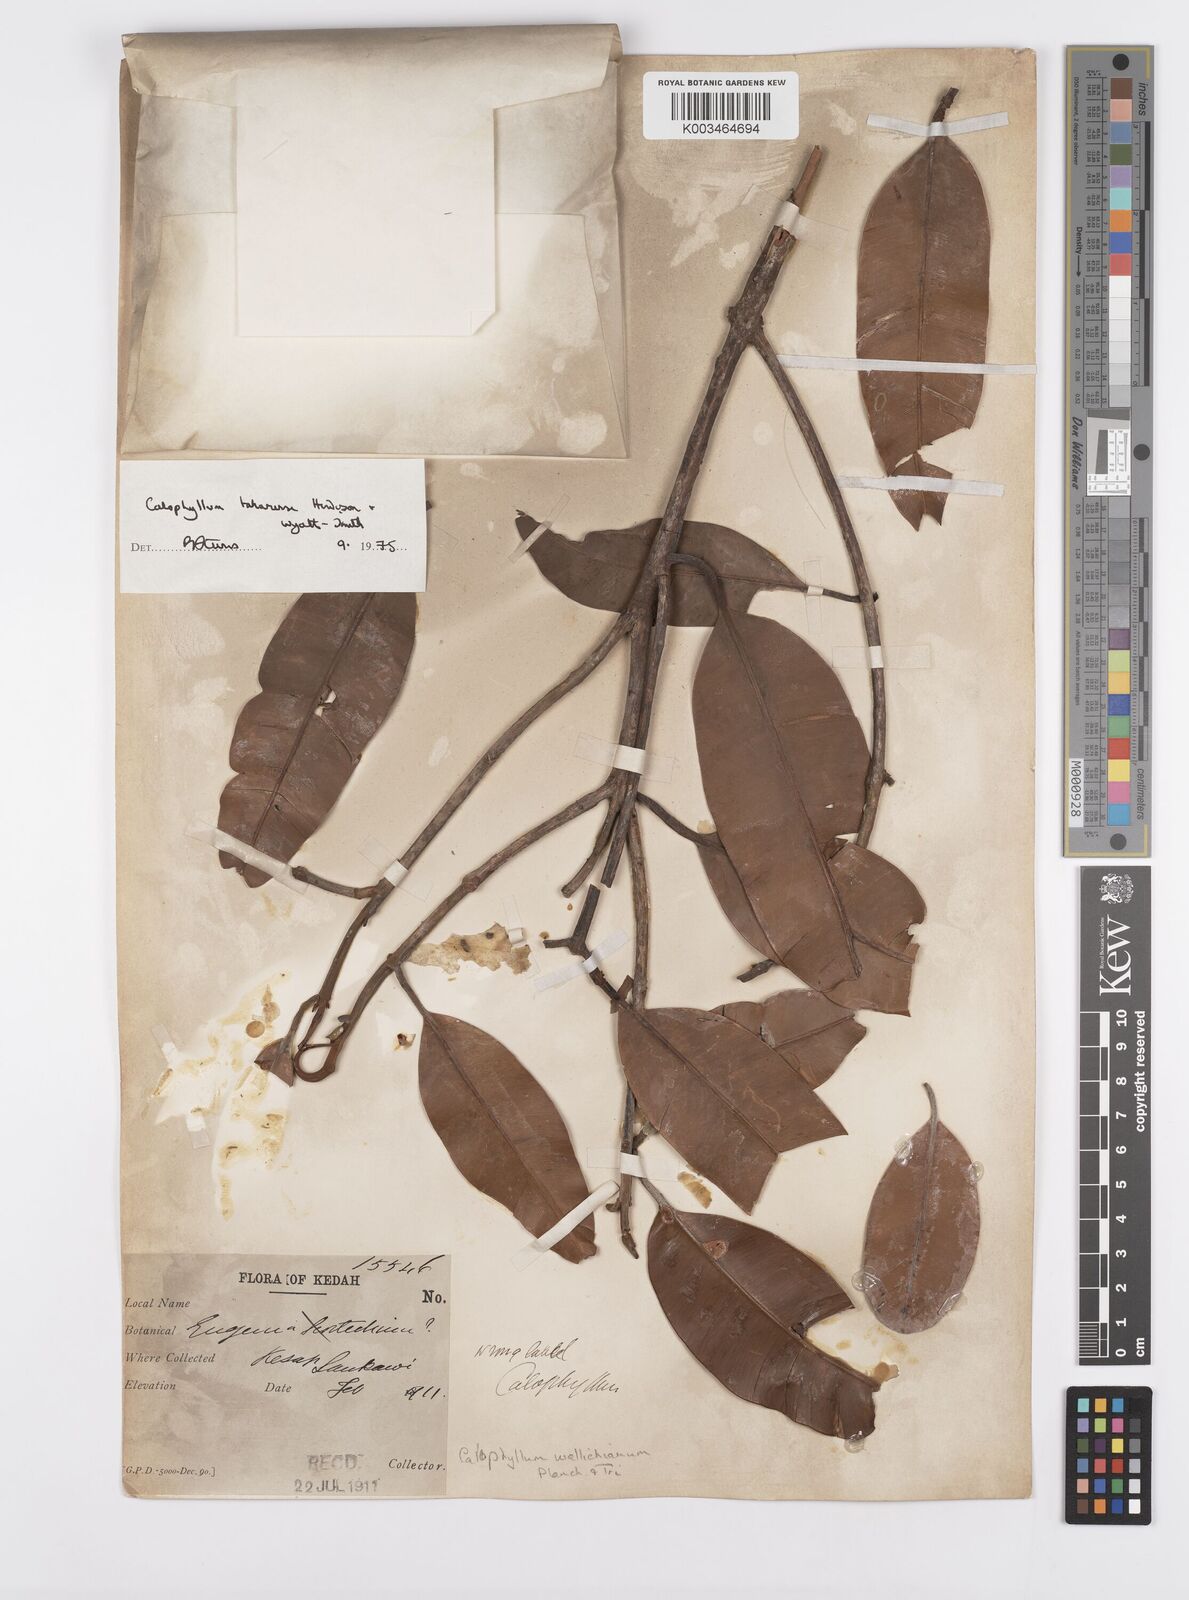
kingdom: Plantae
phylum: Tracheophyta
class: Magnoliopsida
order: Malpighiales
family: Calophyllaceae
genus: Calophyllum
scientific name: Calophyllum wallichiana
